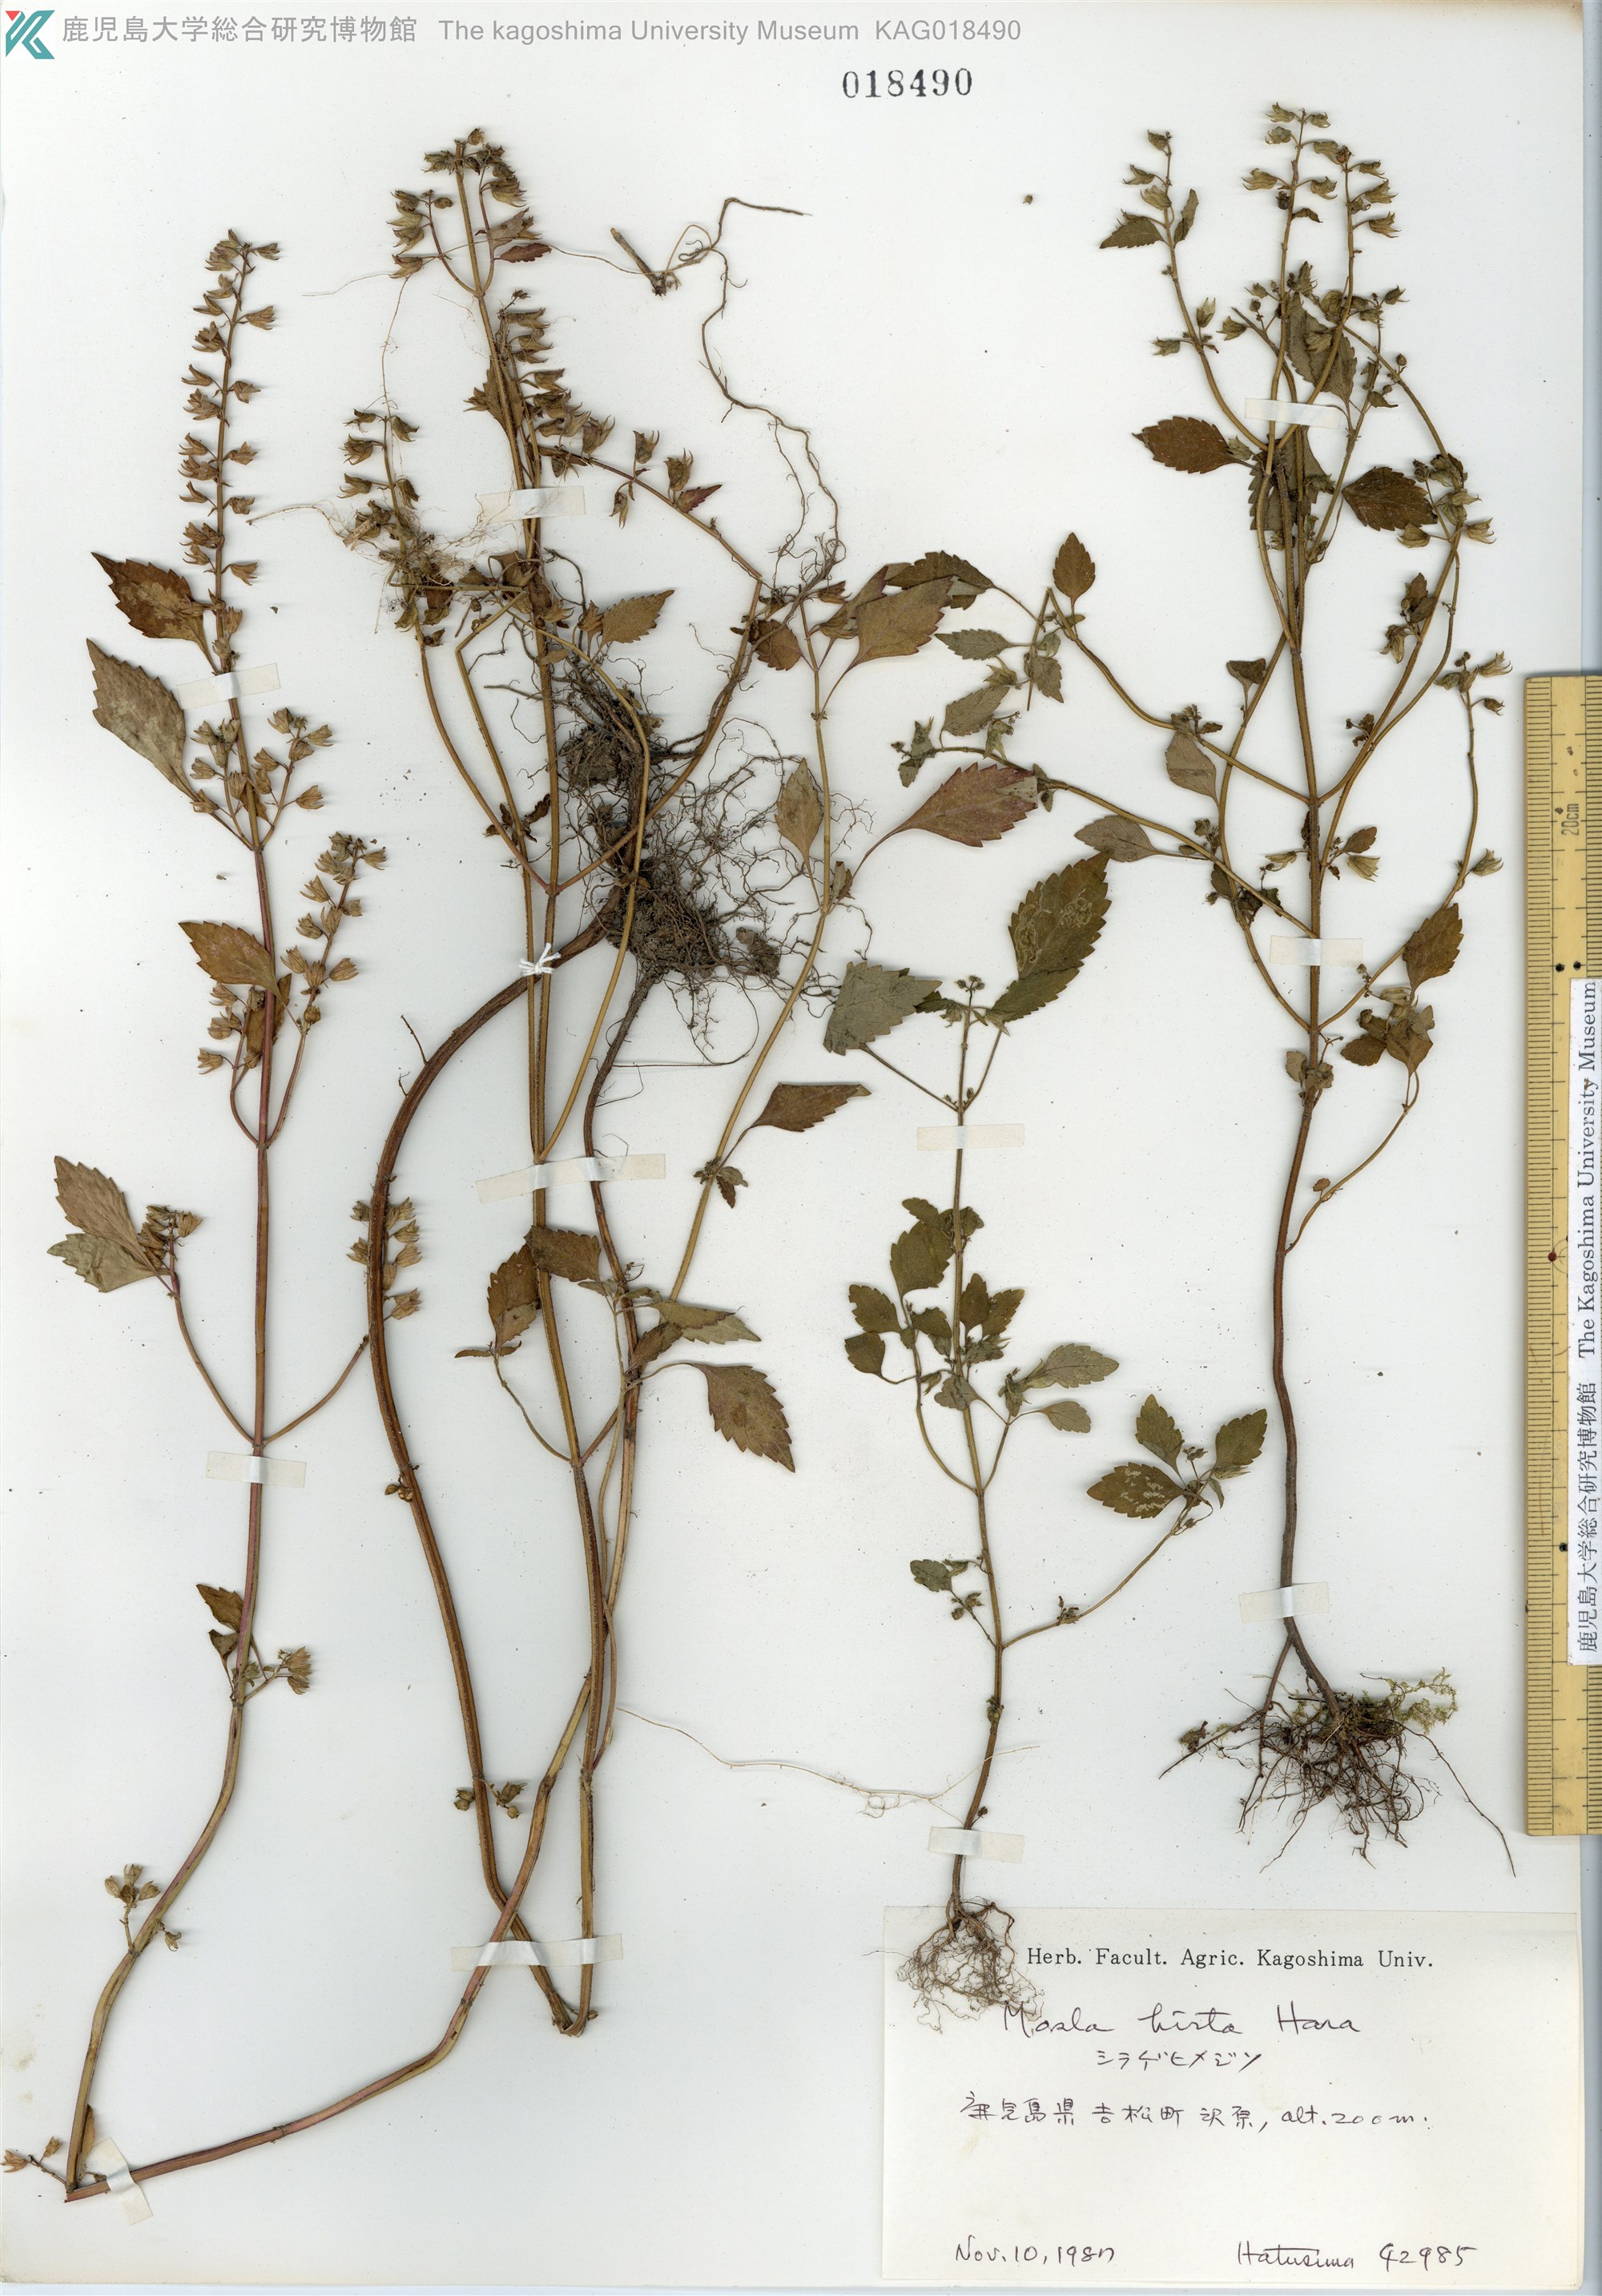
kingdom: Plantae
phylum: Tracheophyta
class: Magnoliopsida
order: Lamiales
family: Lamiaceae
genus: Mosla
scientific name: Mosla dianthera
